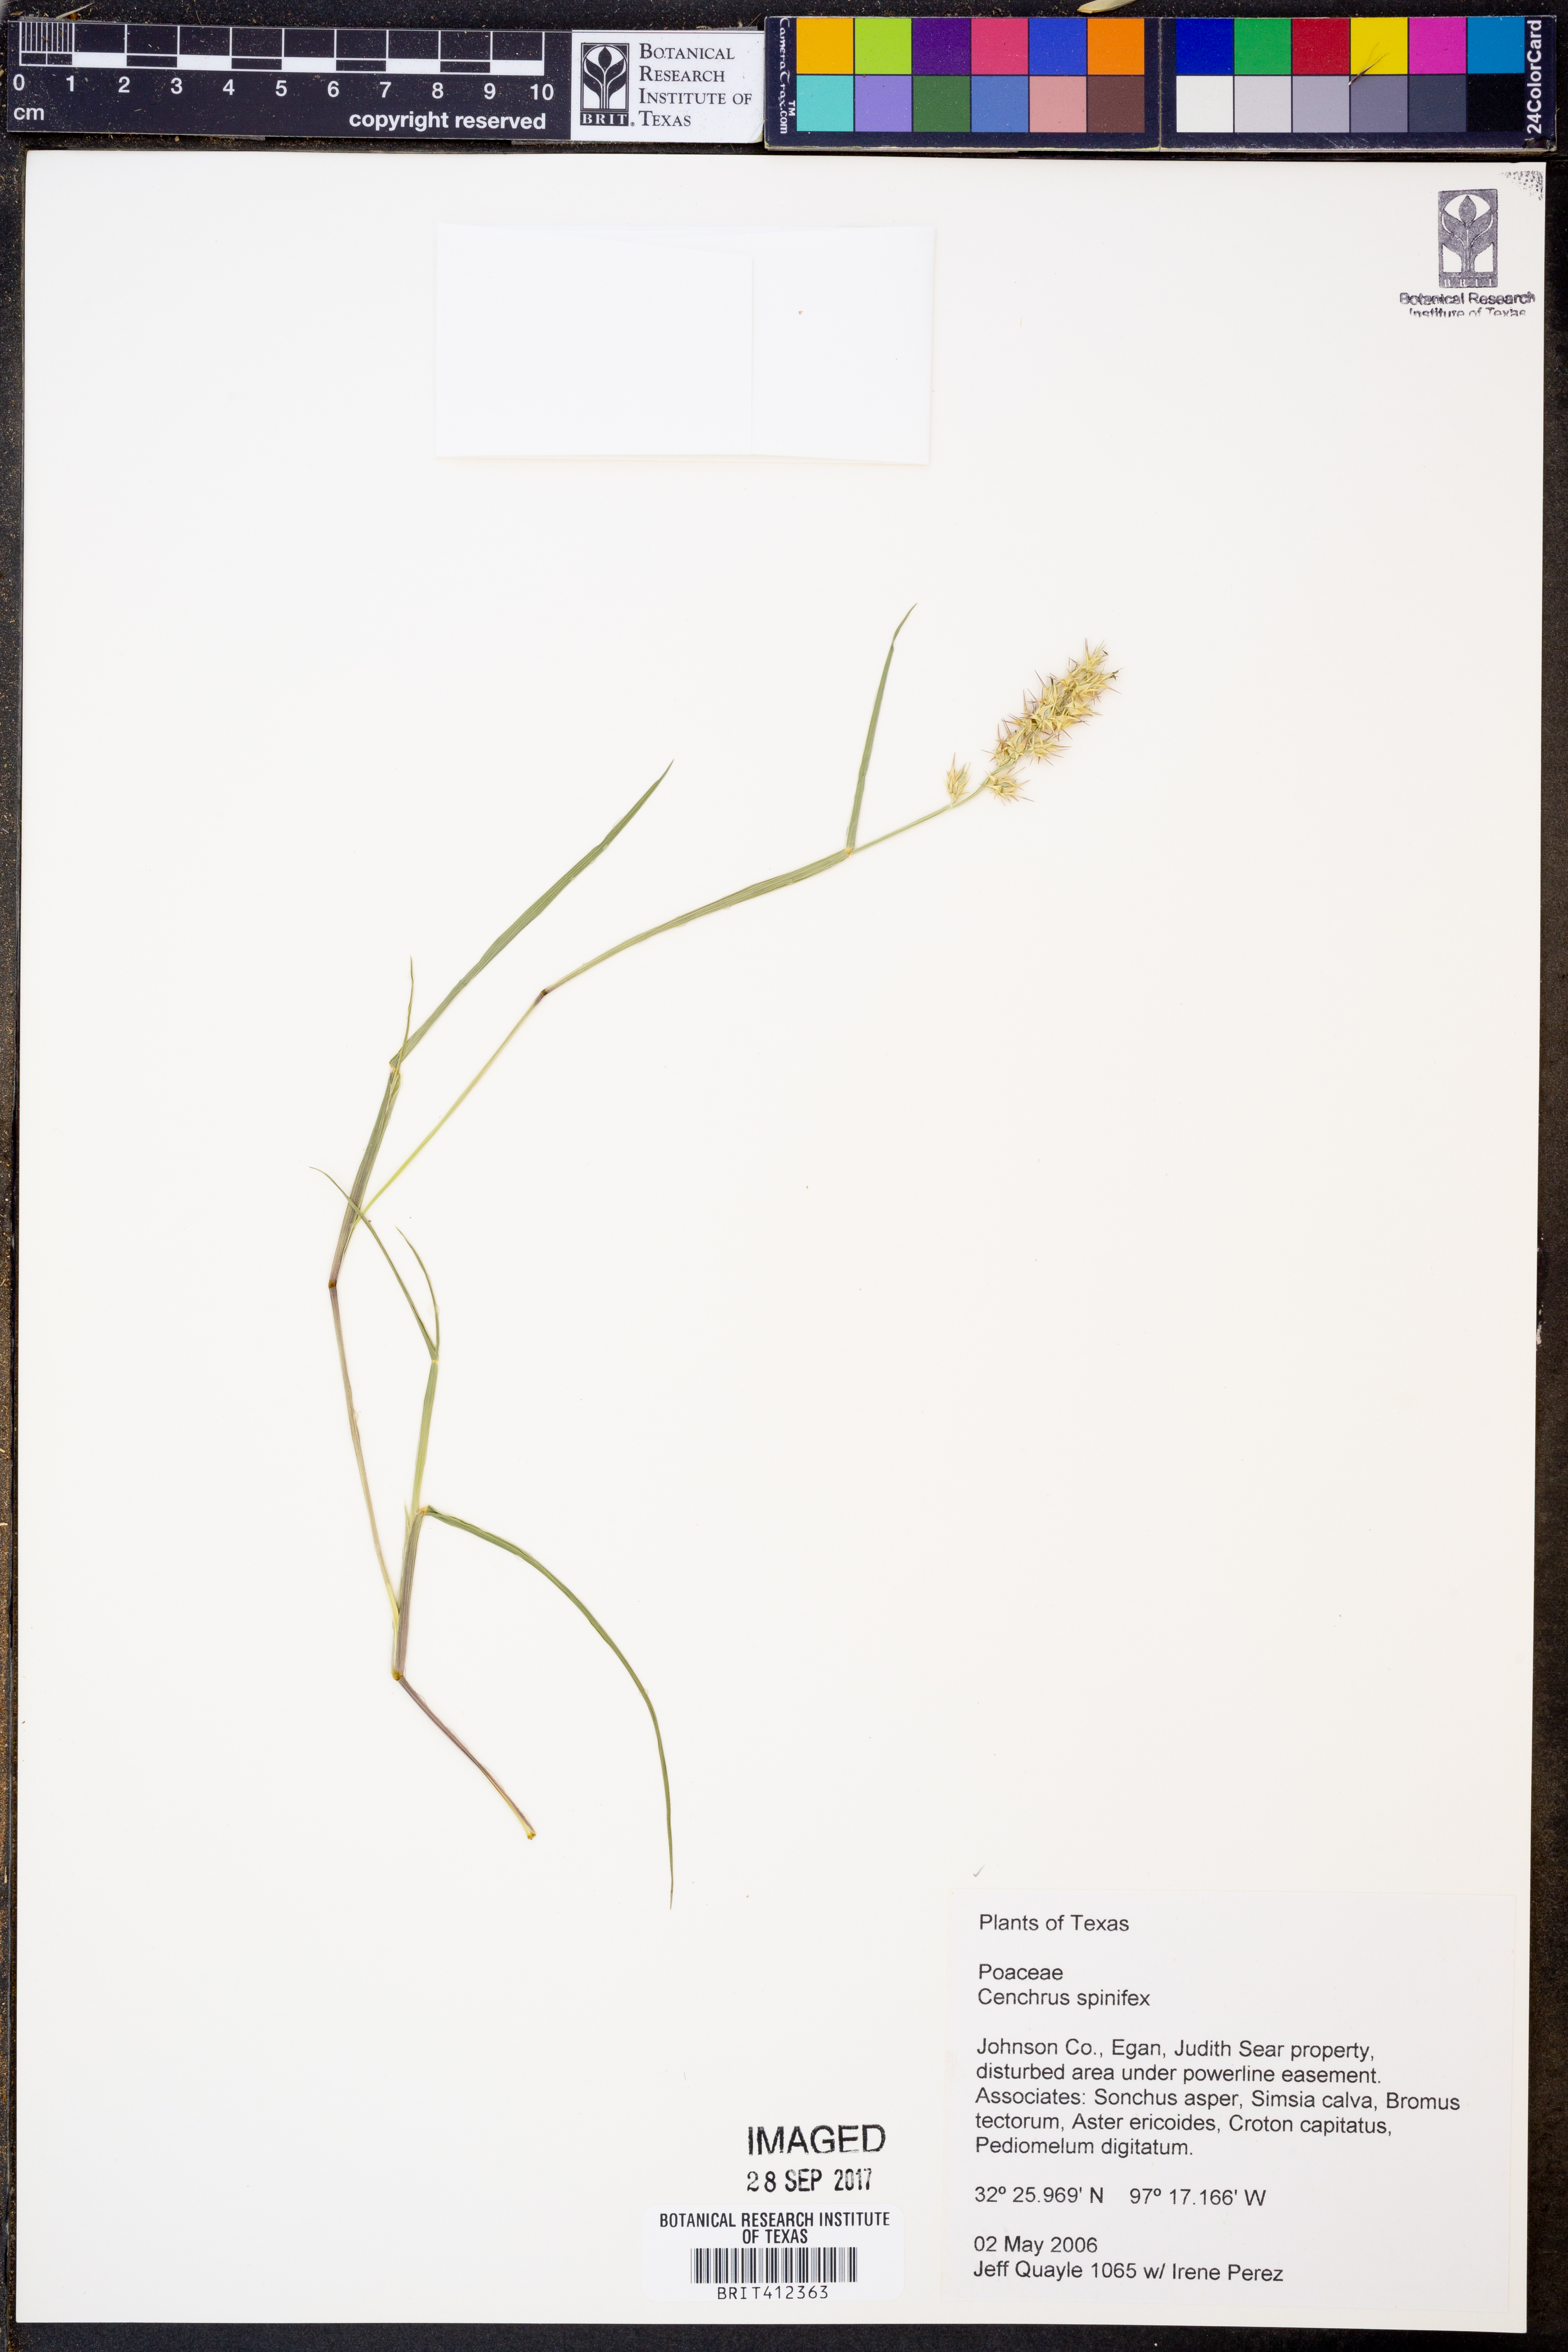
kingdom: Plantae
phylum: Tracheophyta
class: Liliopsida
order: Poales
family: Poaceae
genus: Cenchrus
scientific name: Cenchrus spinifex
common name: Coast sandbur
